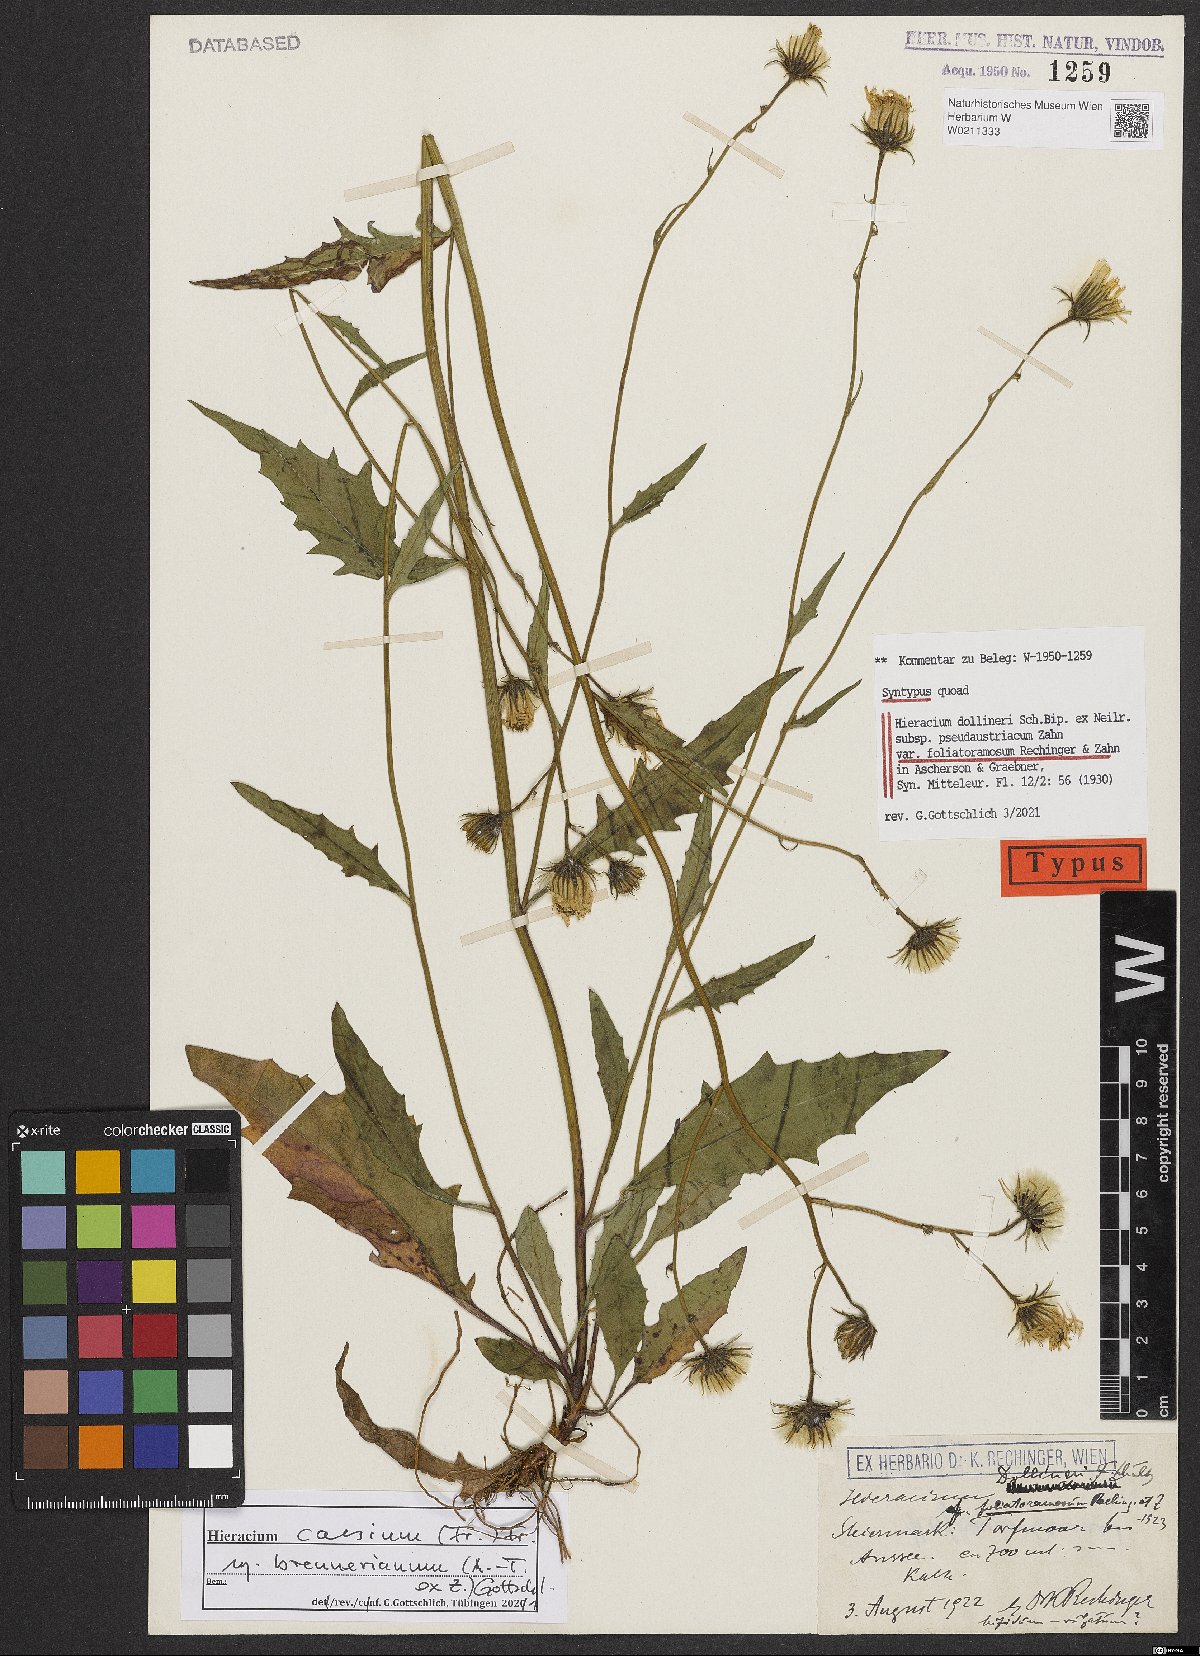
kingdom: Plantae
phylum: Tracheophyta
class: Magnoliopsida
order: Asterales
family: Asteraceae
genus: Hieracium
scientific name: Hieracium dollineri
